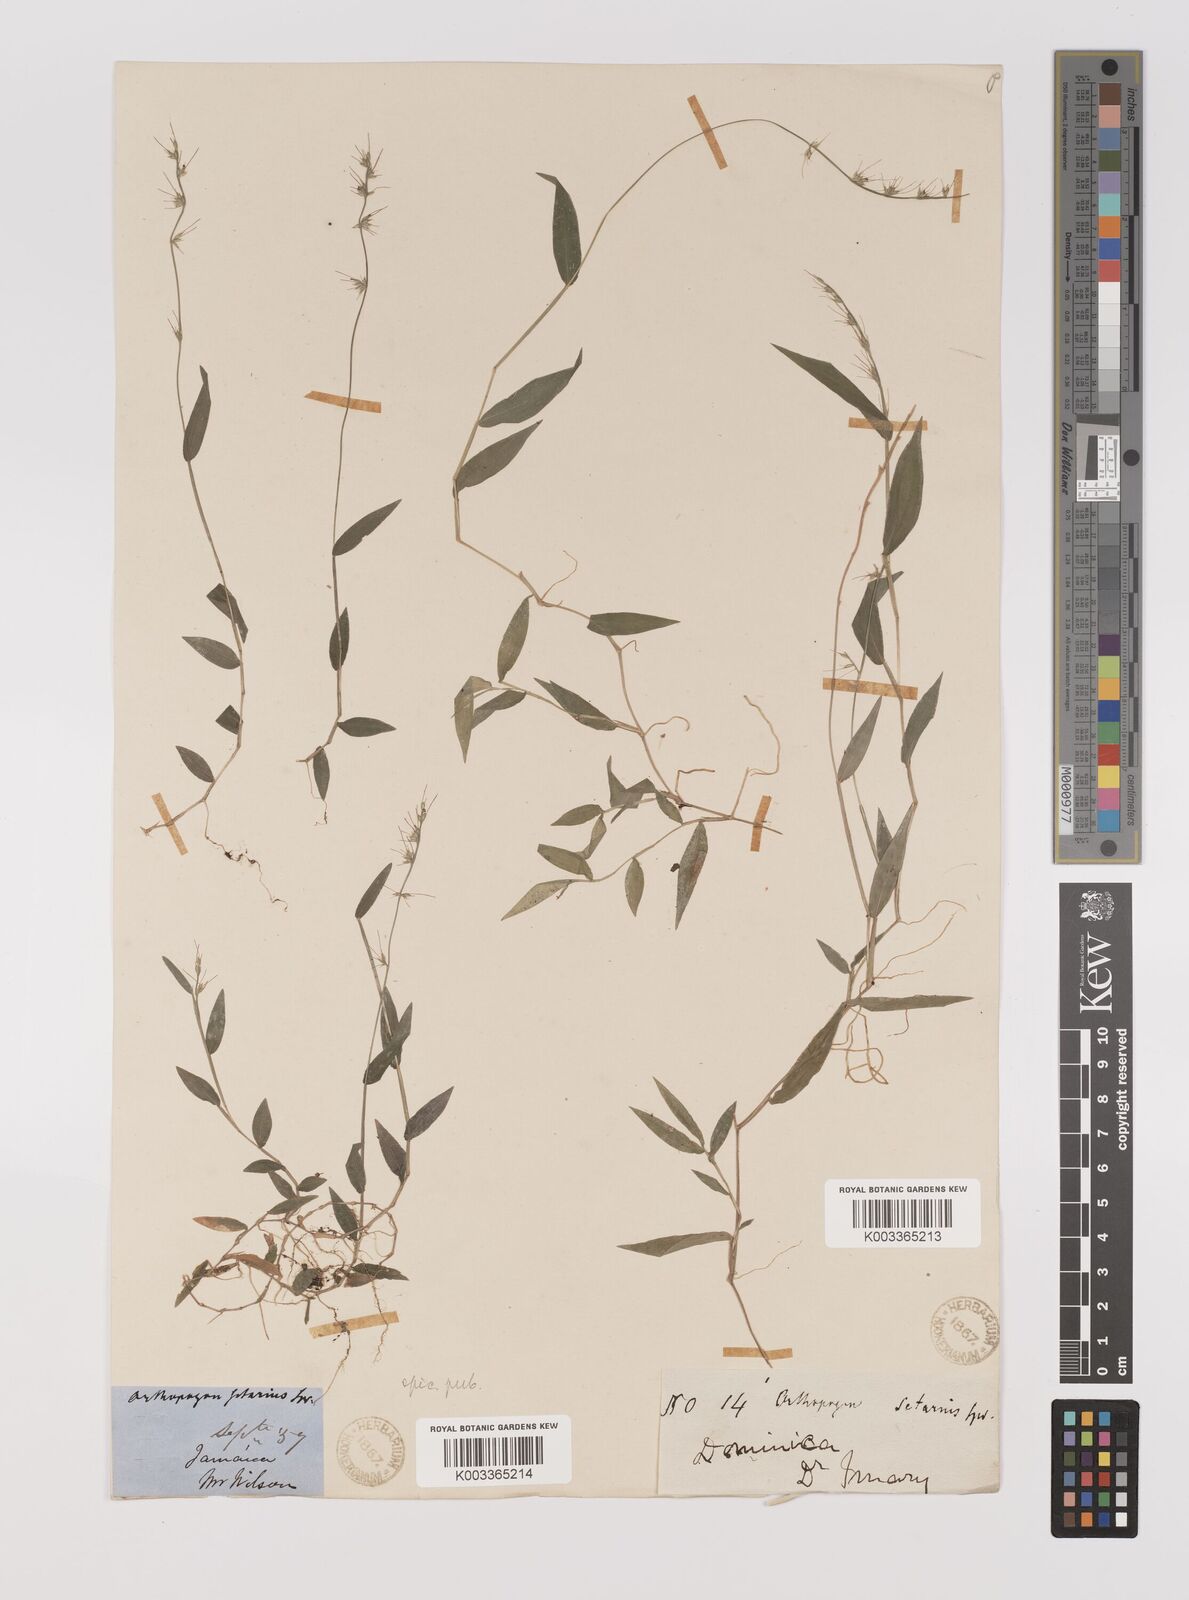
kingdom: Plantae
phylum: Tracheophyta
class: Liliopsida
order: Poales
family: Poaceae
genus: Oplismenus
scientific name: Oplismenus hirtellus
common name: Basketgrass
